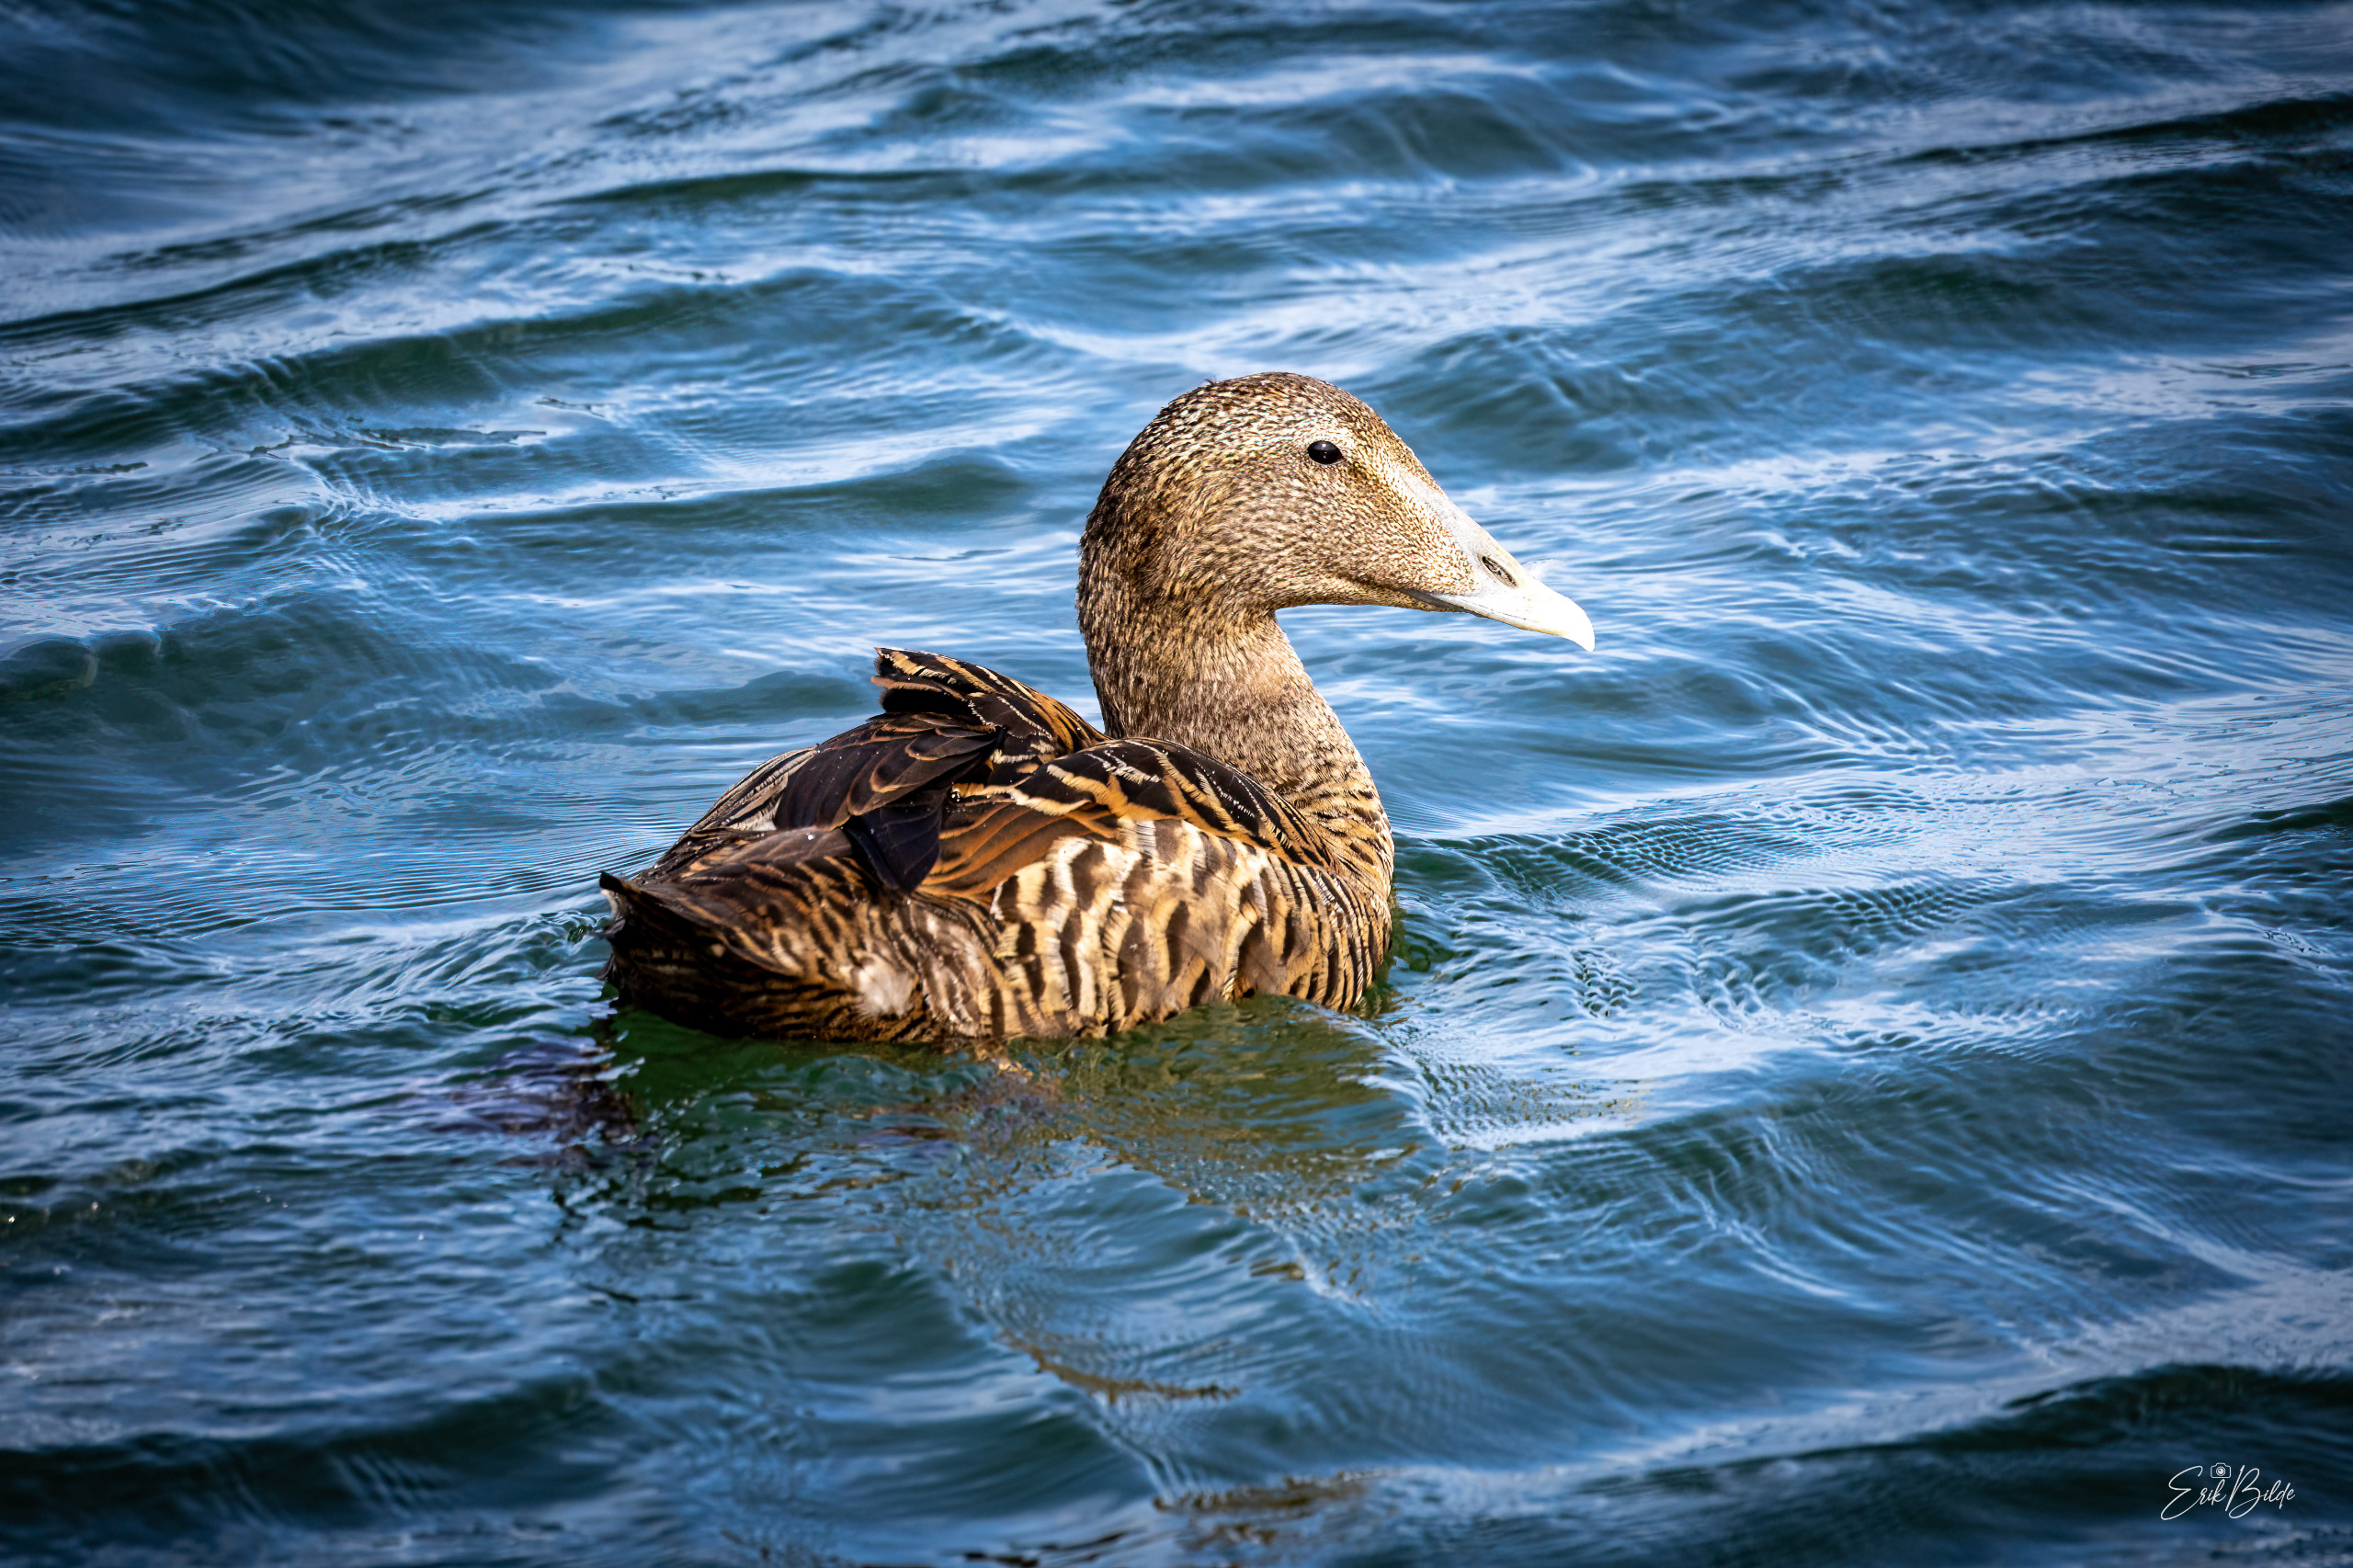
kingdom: Animalia
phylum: Chordata
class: Aves
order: Anseriformes
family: Anatidae
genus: Somateria
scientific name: Somateria mollissima
